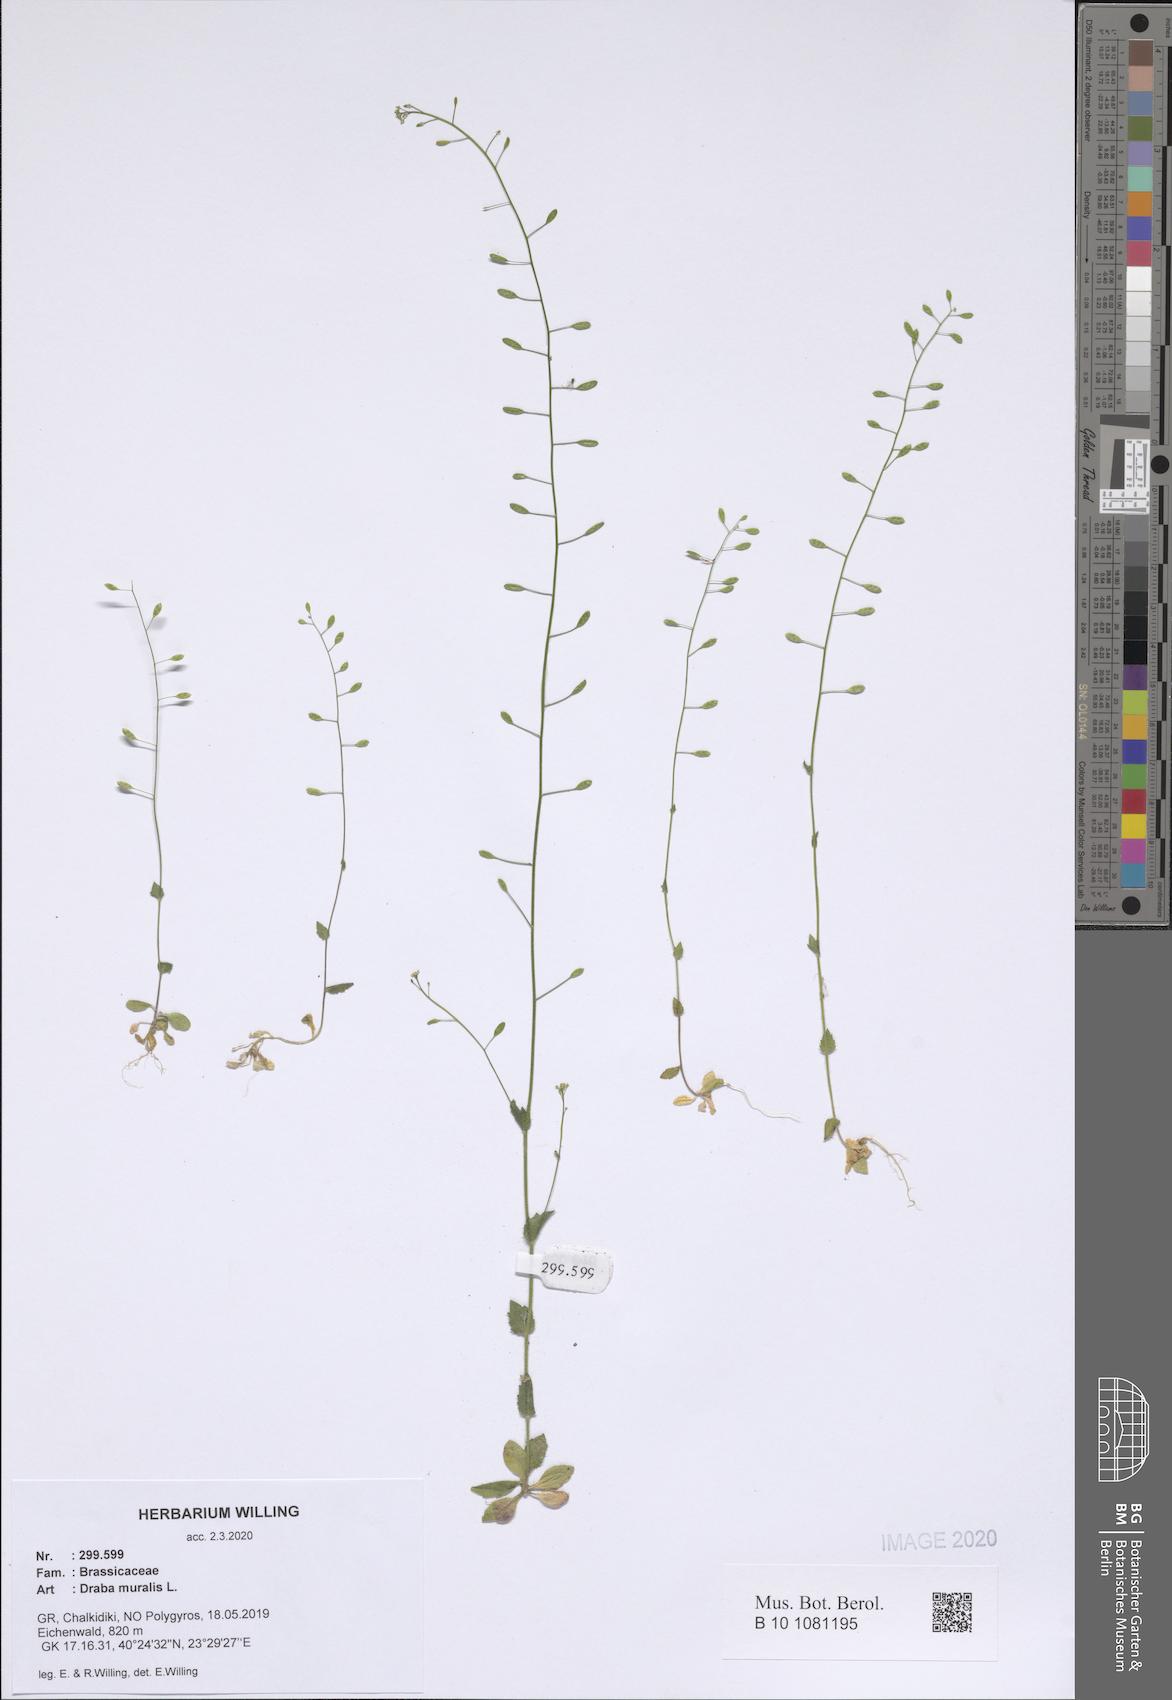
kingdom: Plantae
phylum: Tracheophyta
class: Magnoliopsida
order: Brassicales
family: Brassicaceae
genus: Drabella
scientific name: Drabella muralis
